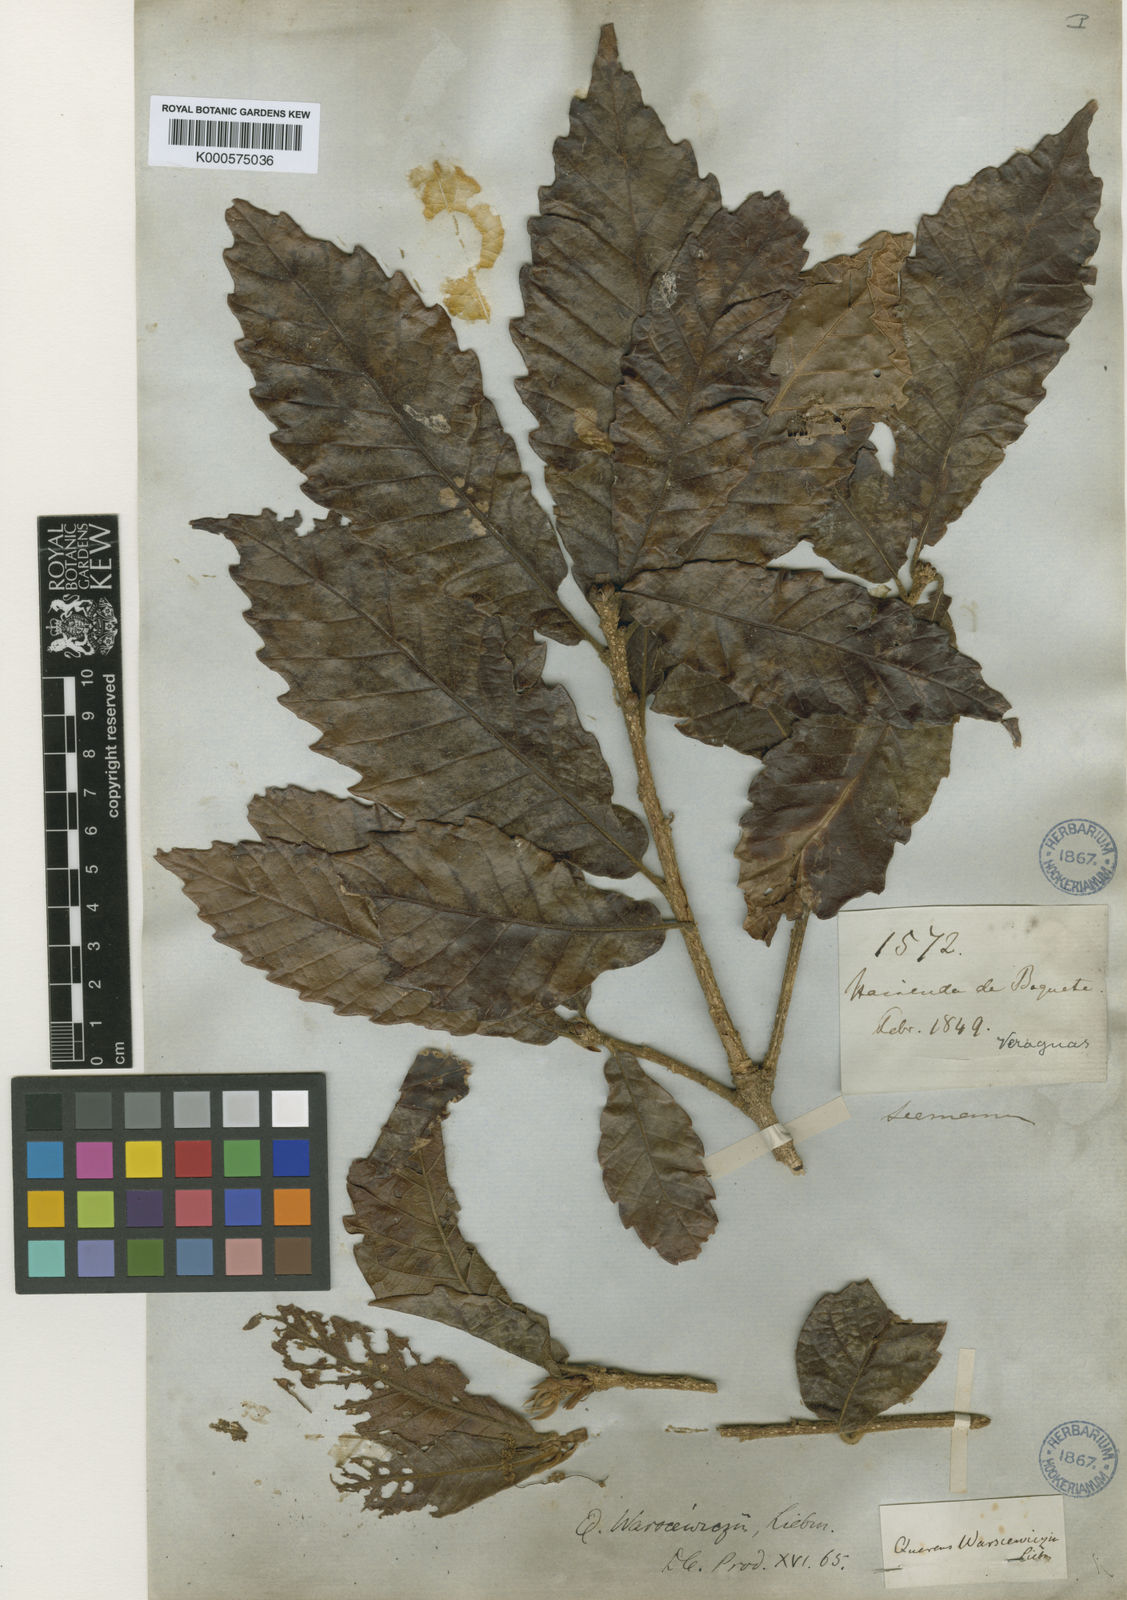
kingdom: Plantae
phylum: Tracheophyta
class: Magnoliopsida
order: Fagales
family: Fagaceae
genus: Quercus
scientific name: Quercus oocarpa
